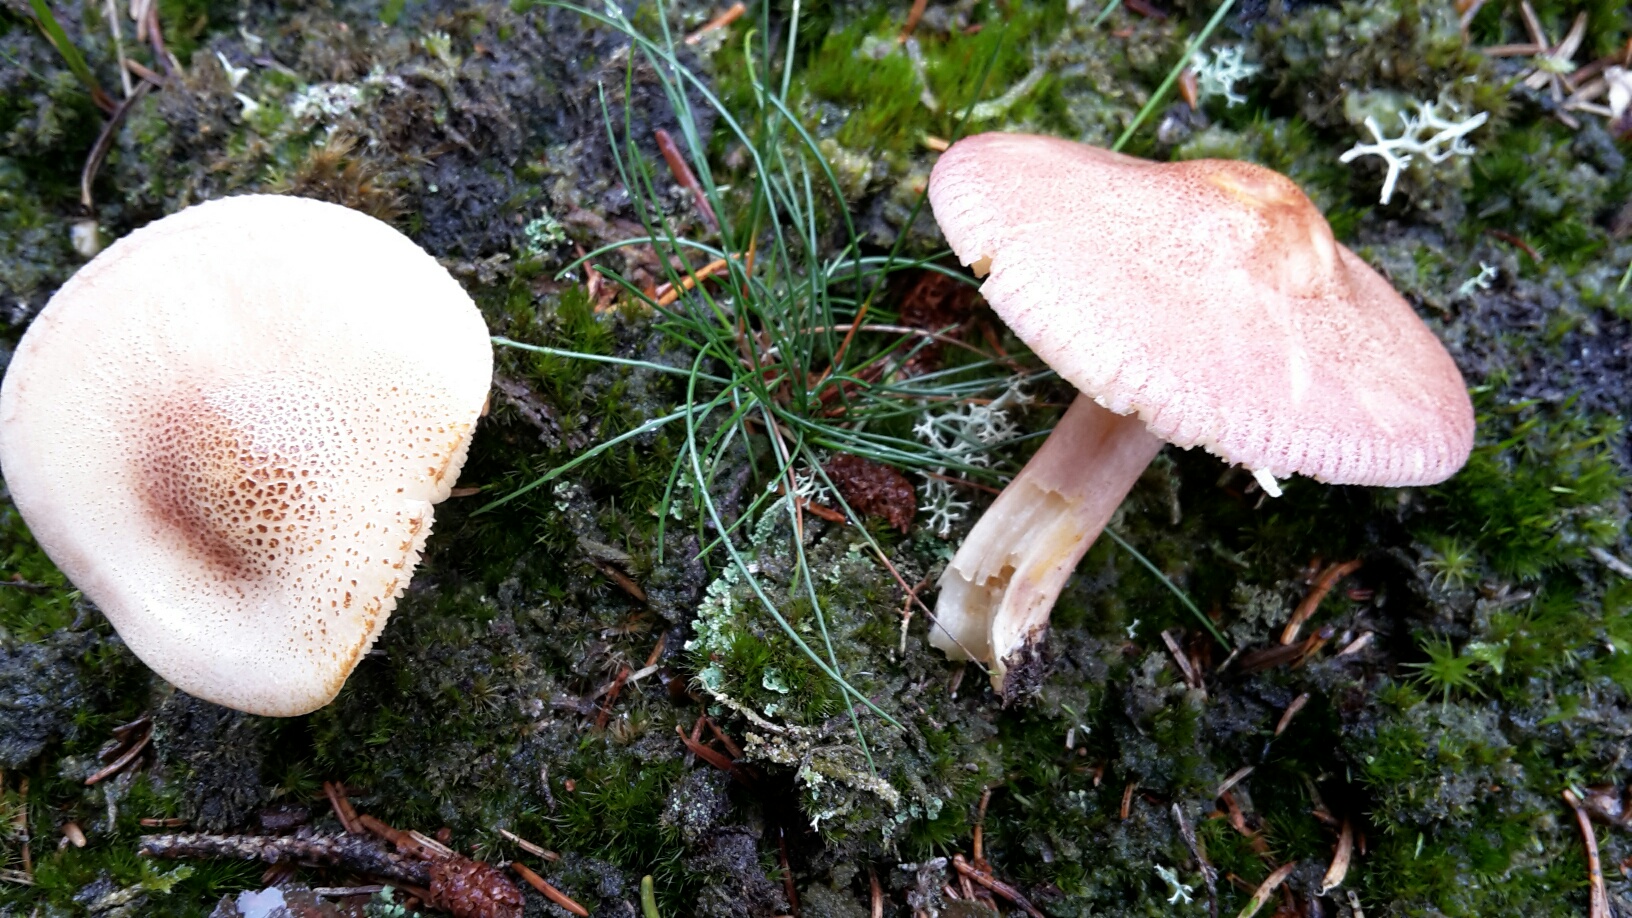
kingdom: Fungi
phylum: Basidiomycota
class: Agaricomycetes
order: Agaricales
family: Tricholomataceae
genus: Tricholomopsis
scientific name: Tricholomopsis rutilans
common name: purpur-væbnerhat
